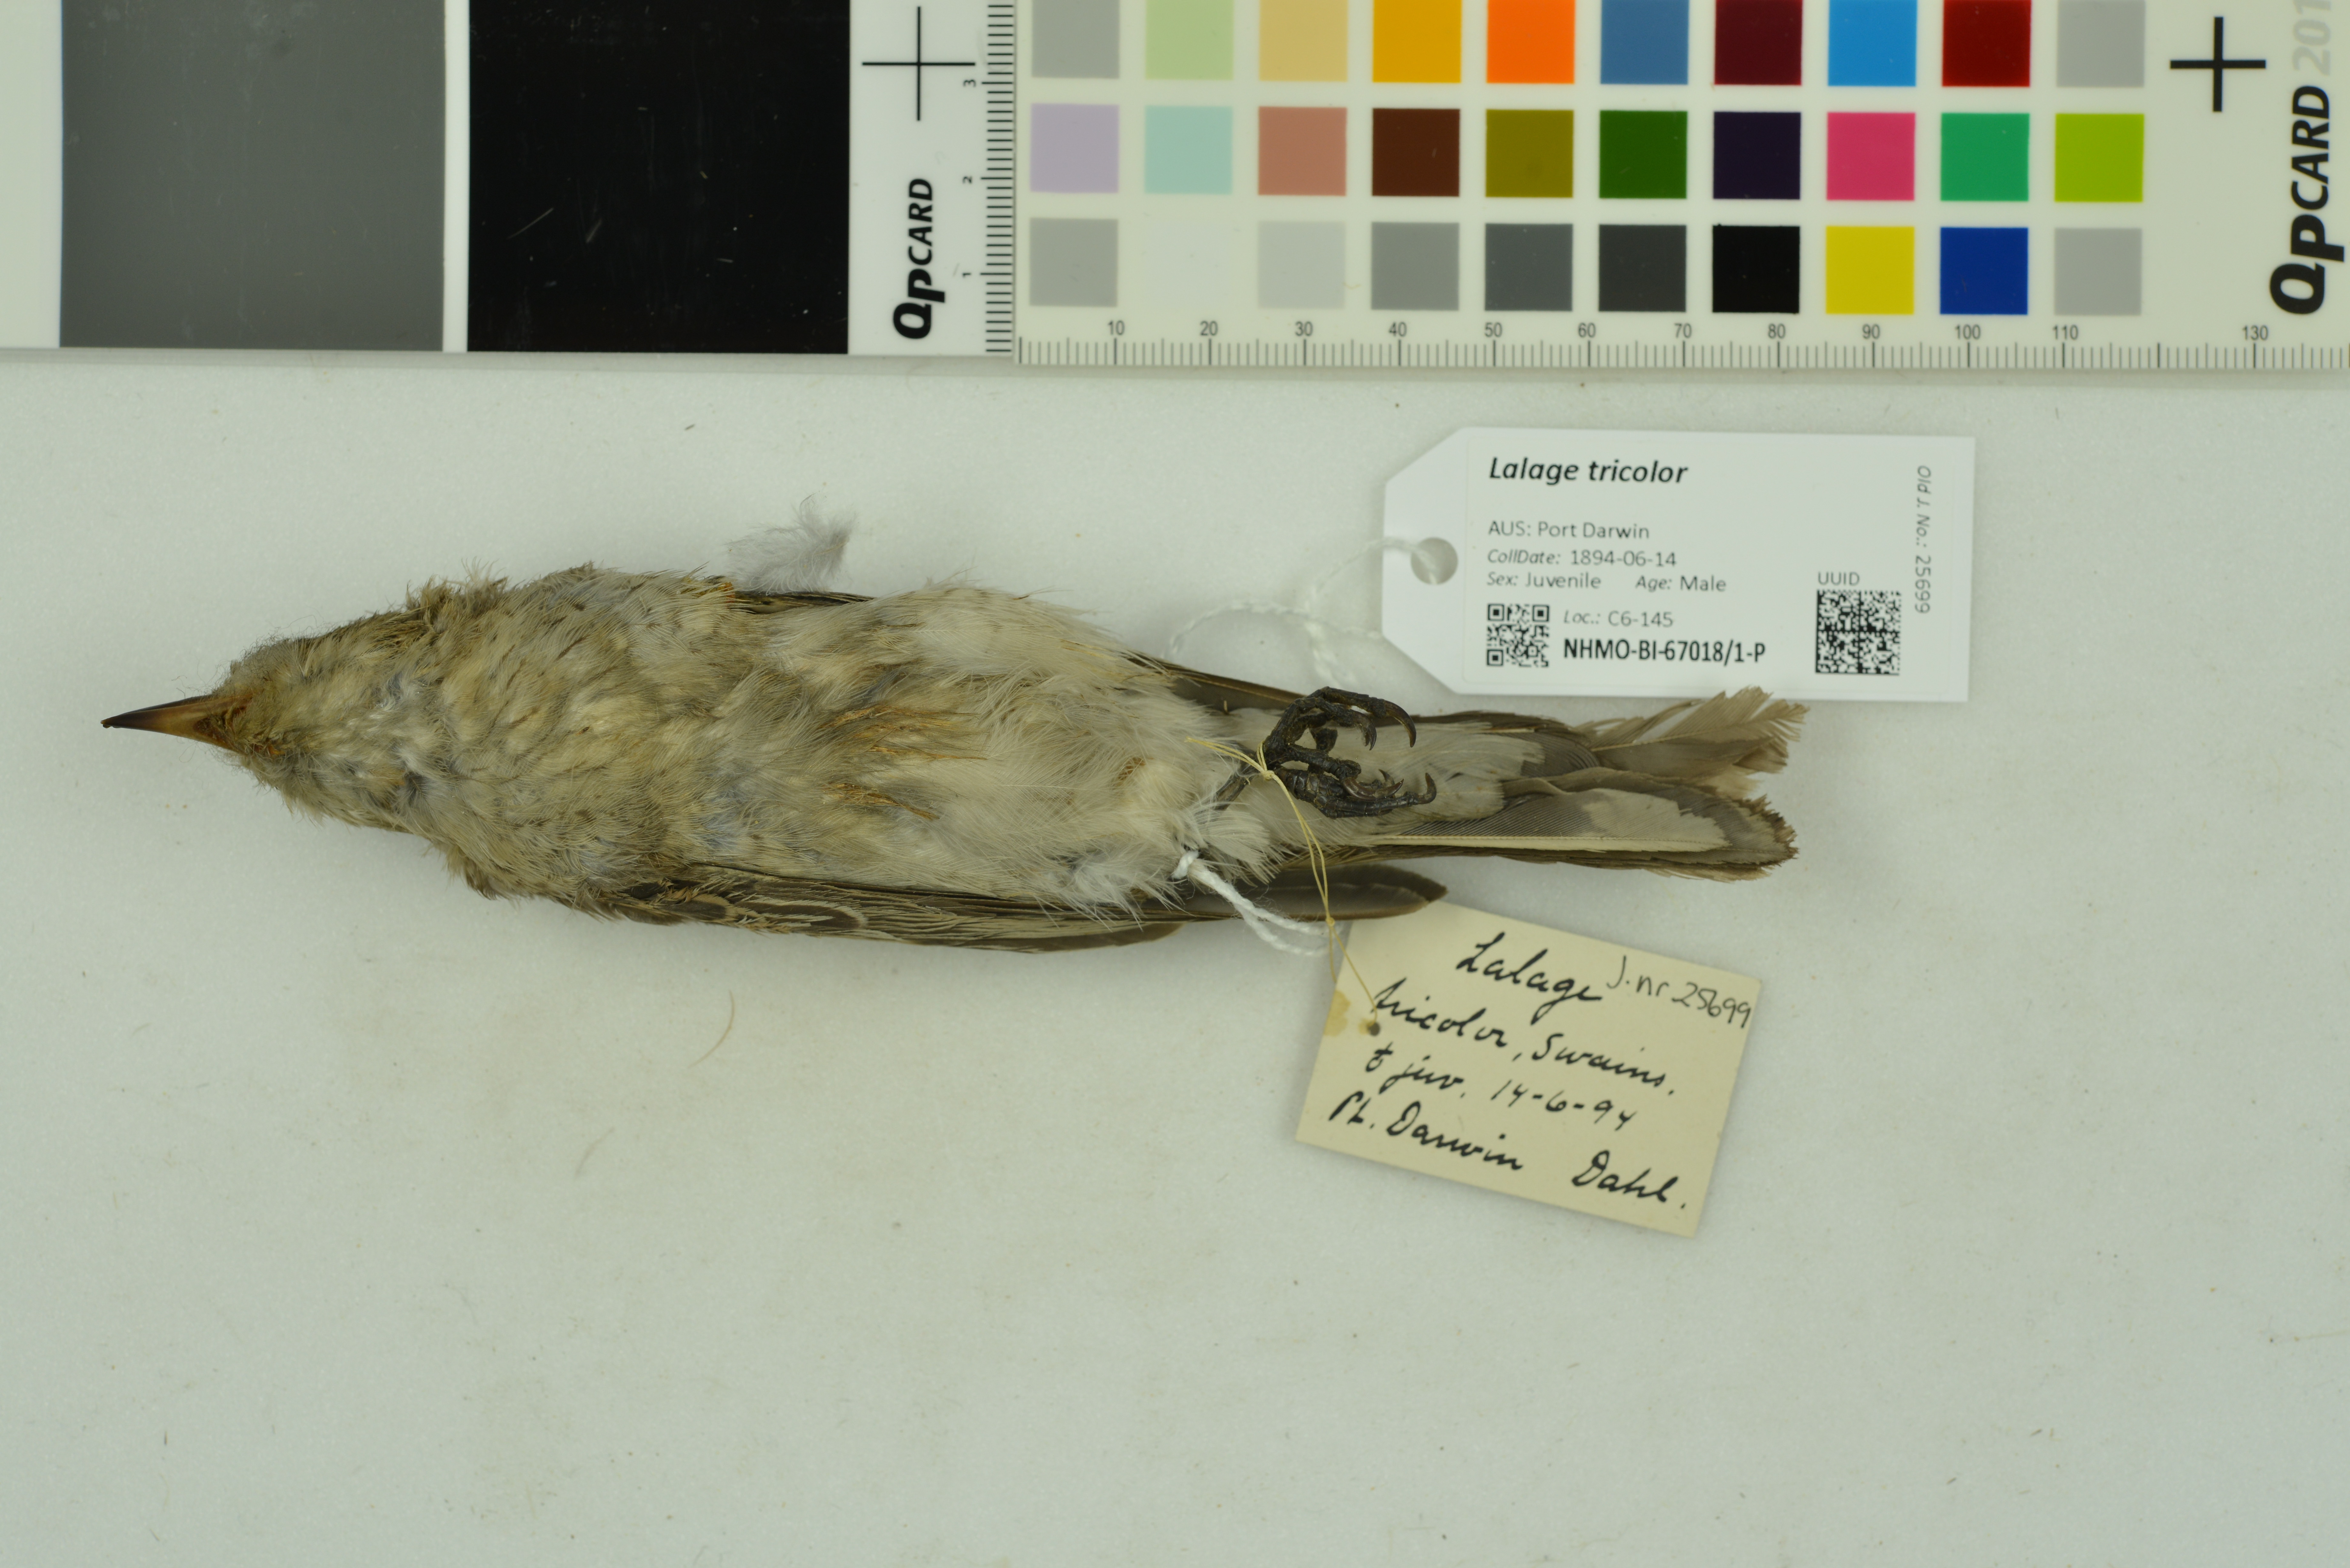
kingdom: Animalia
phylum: Chordata
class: Aves
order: Passeriformes
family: Campephagidae
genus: Lalage
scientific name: Lalage tricolor
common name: White-winged triller
